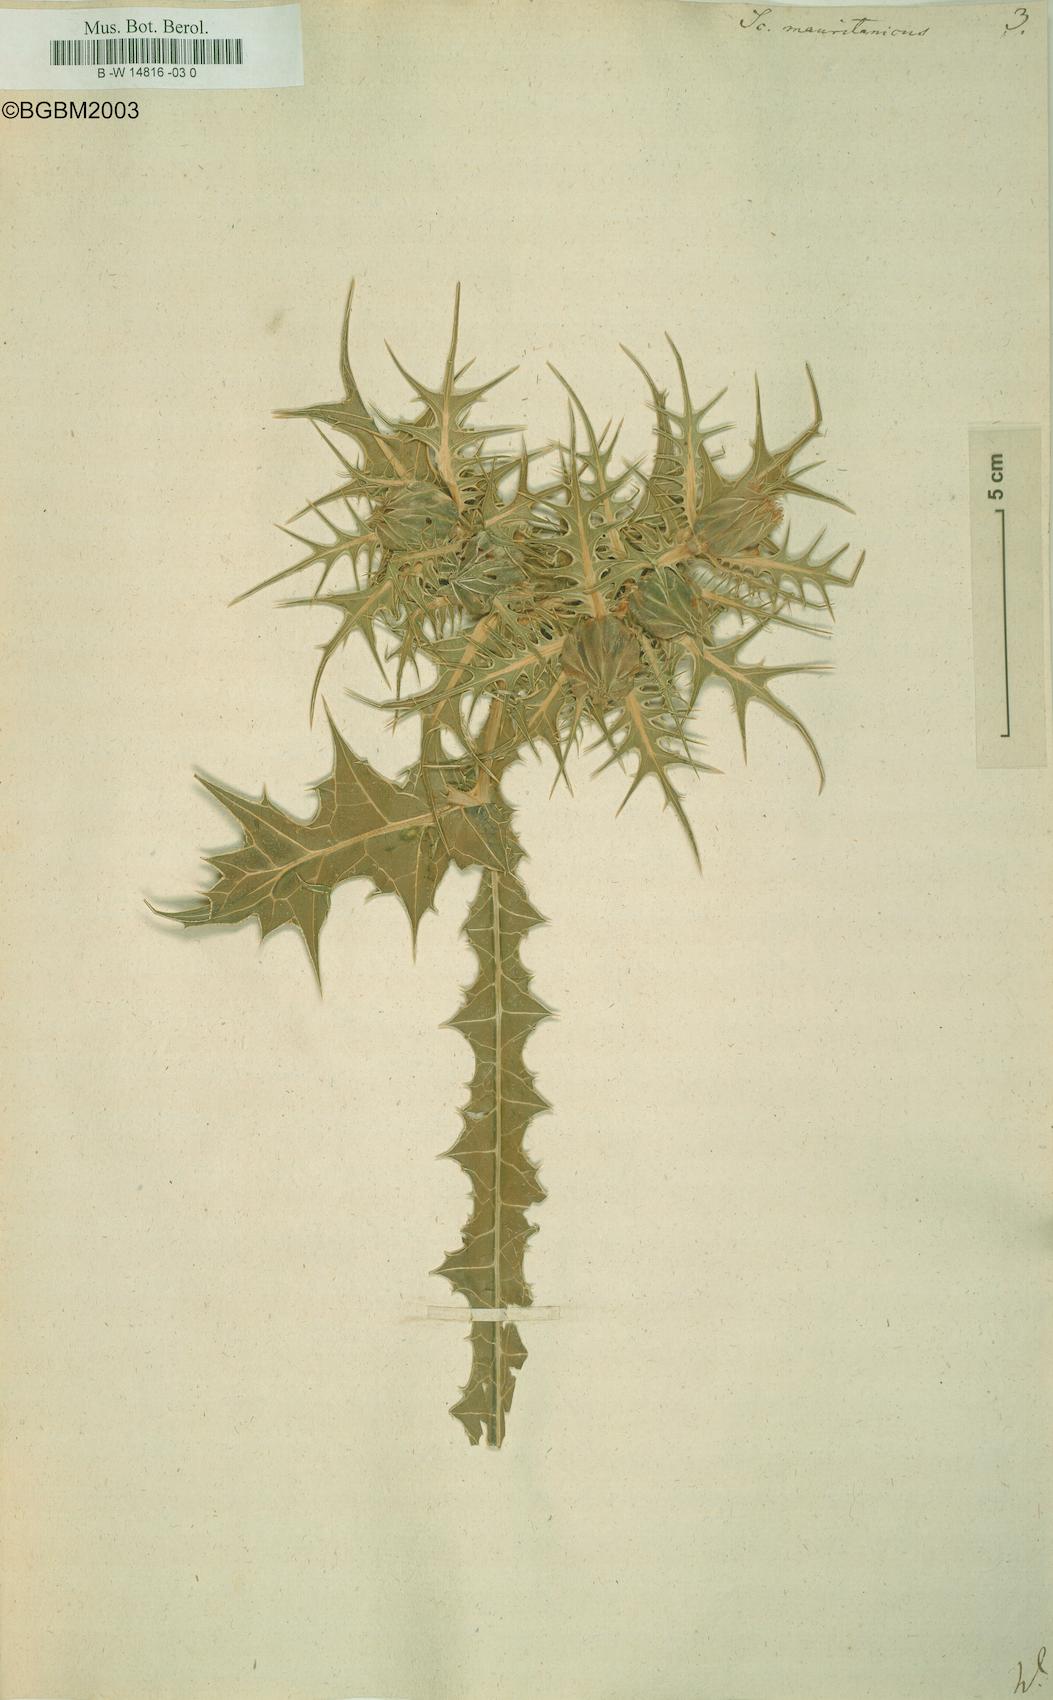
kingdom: Plantae
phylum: Tracheophyta
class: Magnoliopsida
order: Asterales
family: Asteraceae
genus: Scolymus
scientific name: Scolymus maculatus
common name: Spotted thistle
